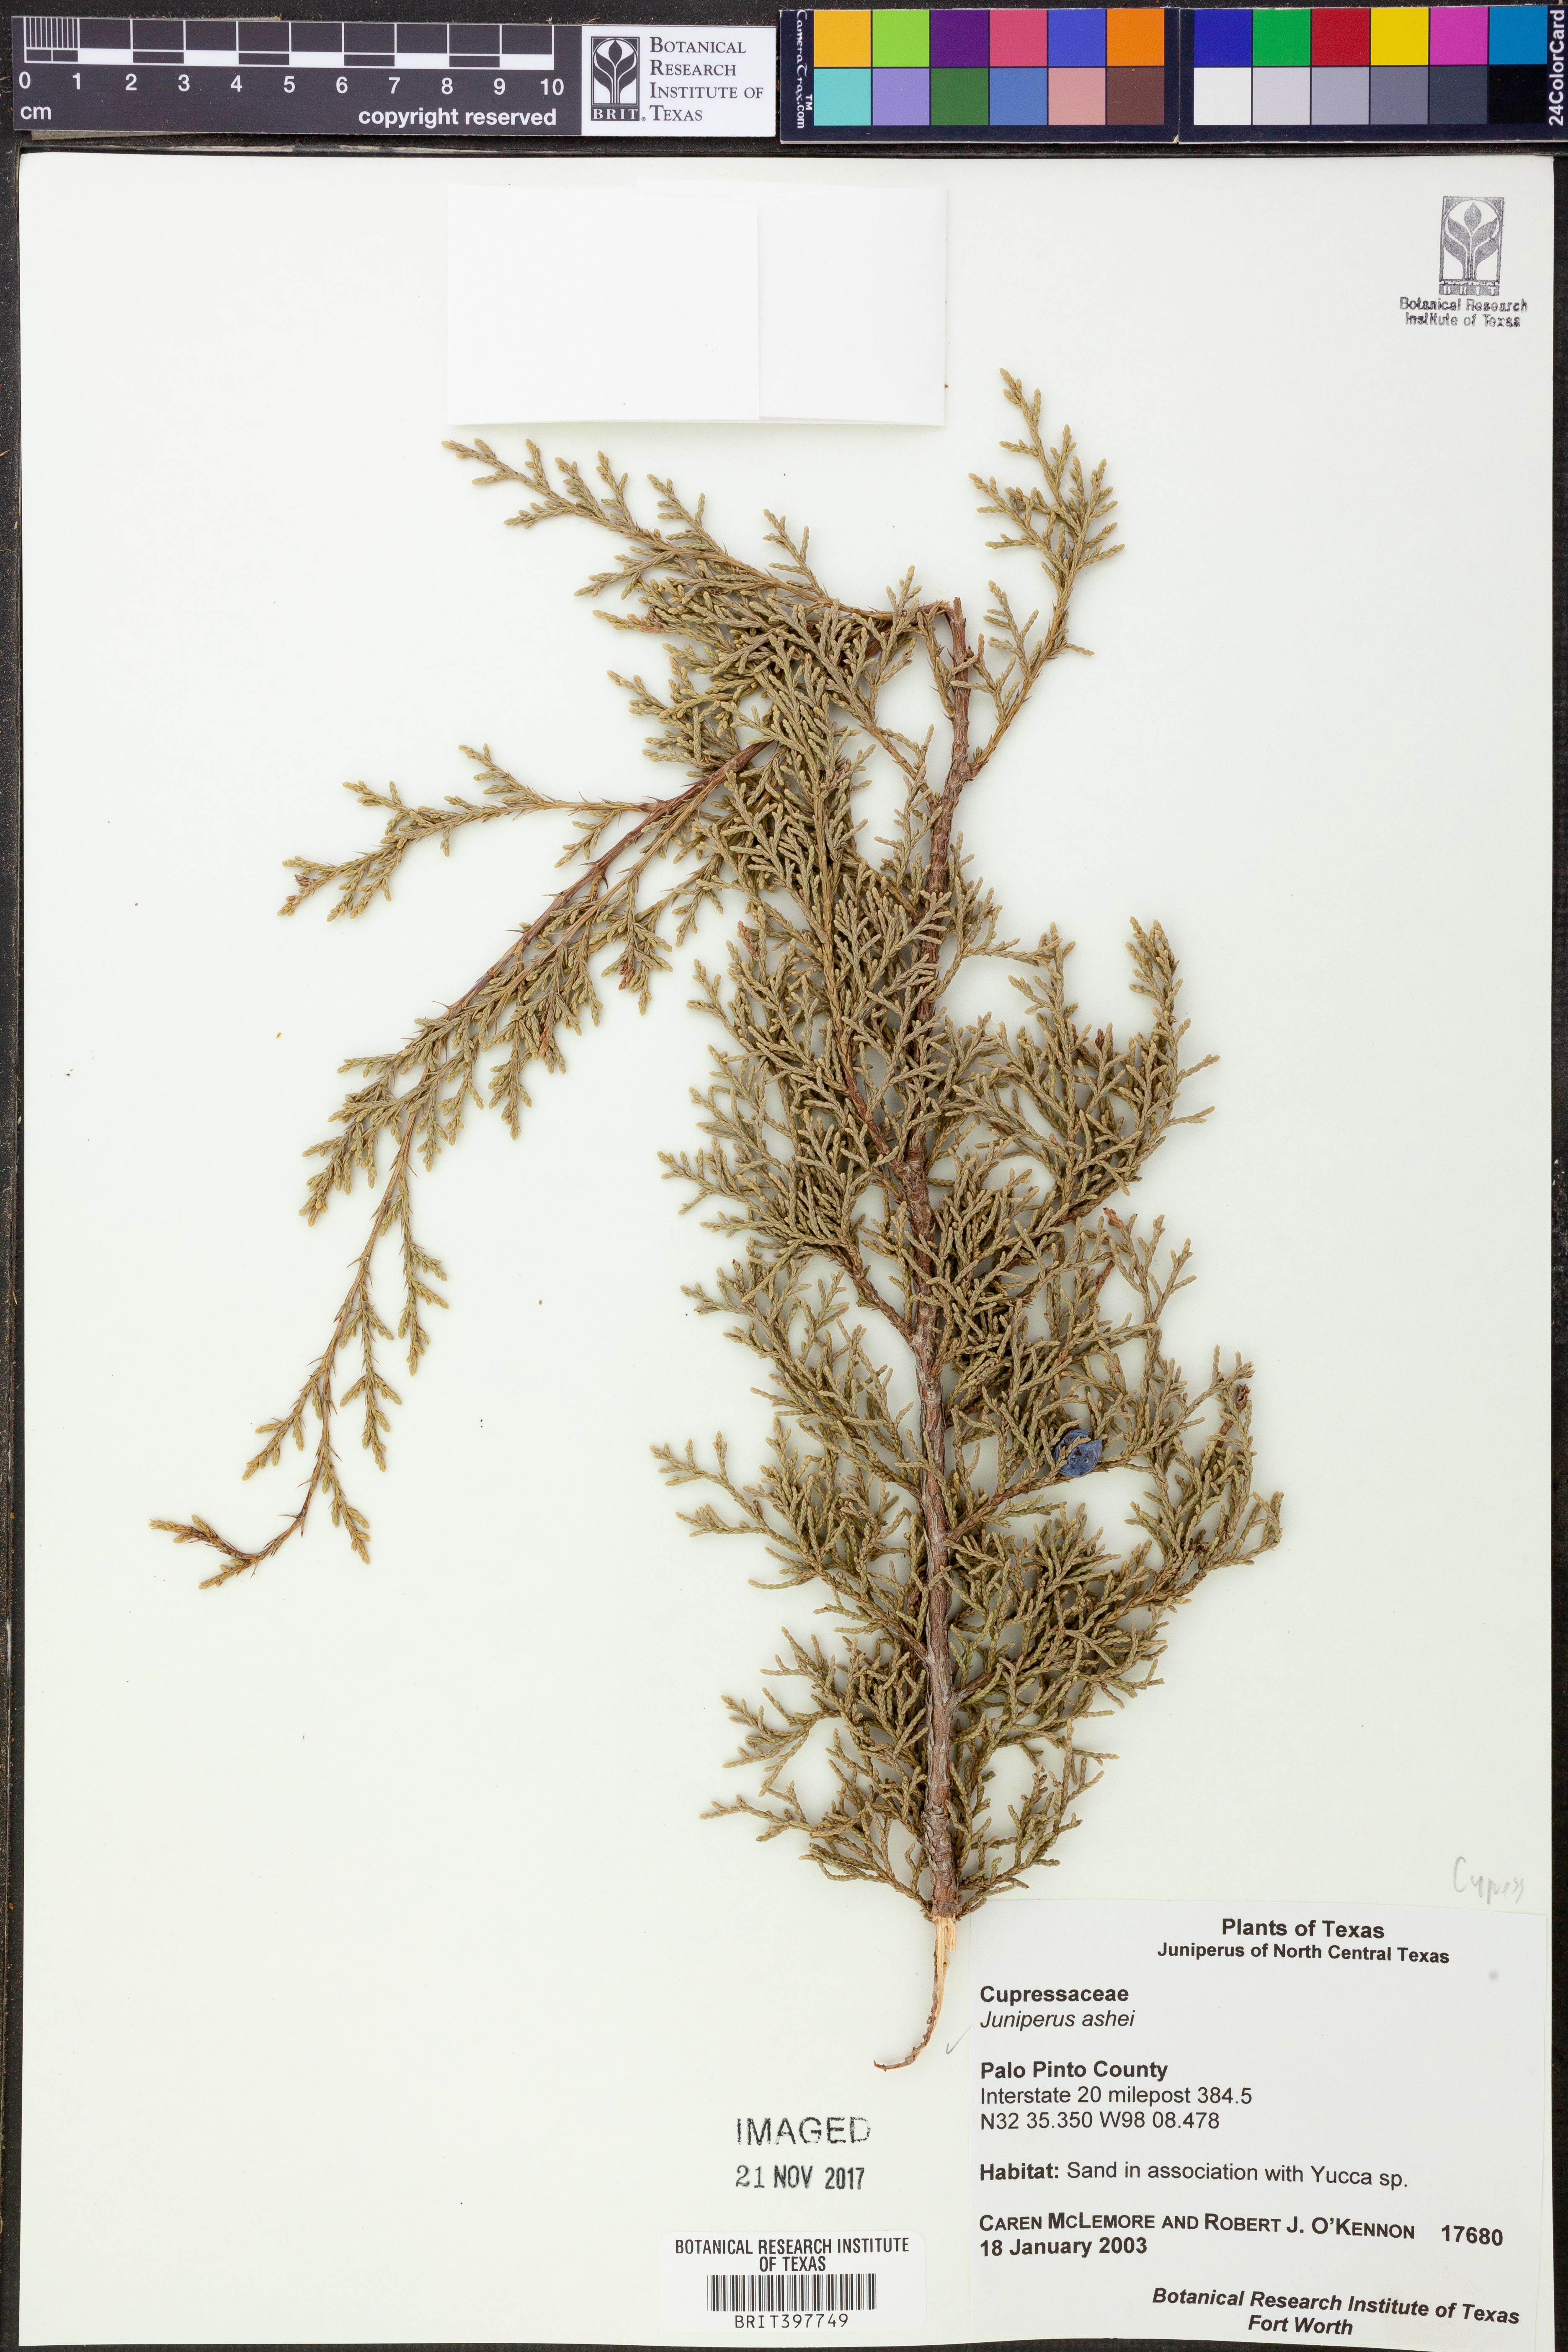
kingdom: Plantae
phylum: Tracheophyta
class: Pinopsida
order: Pinales
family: Cupressaceae
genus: Juniperus
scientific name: Juniperus ashei
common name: Mexican juniper
